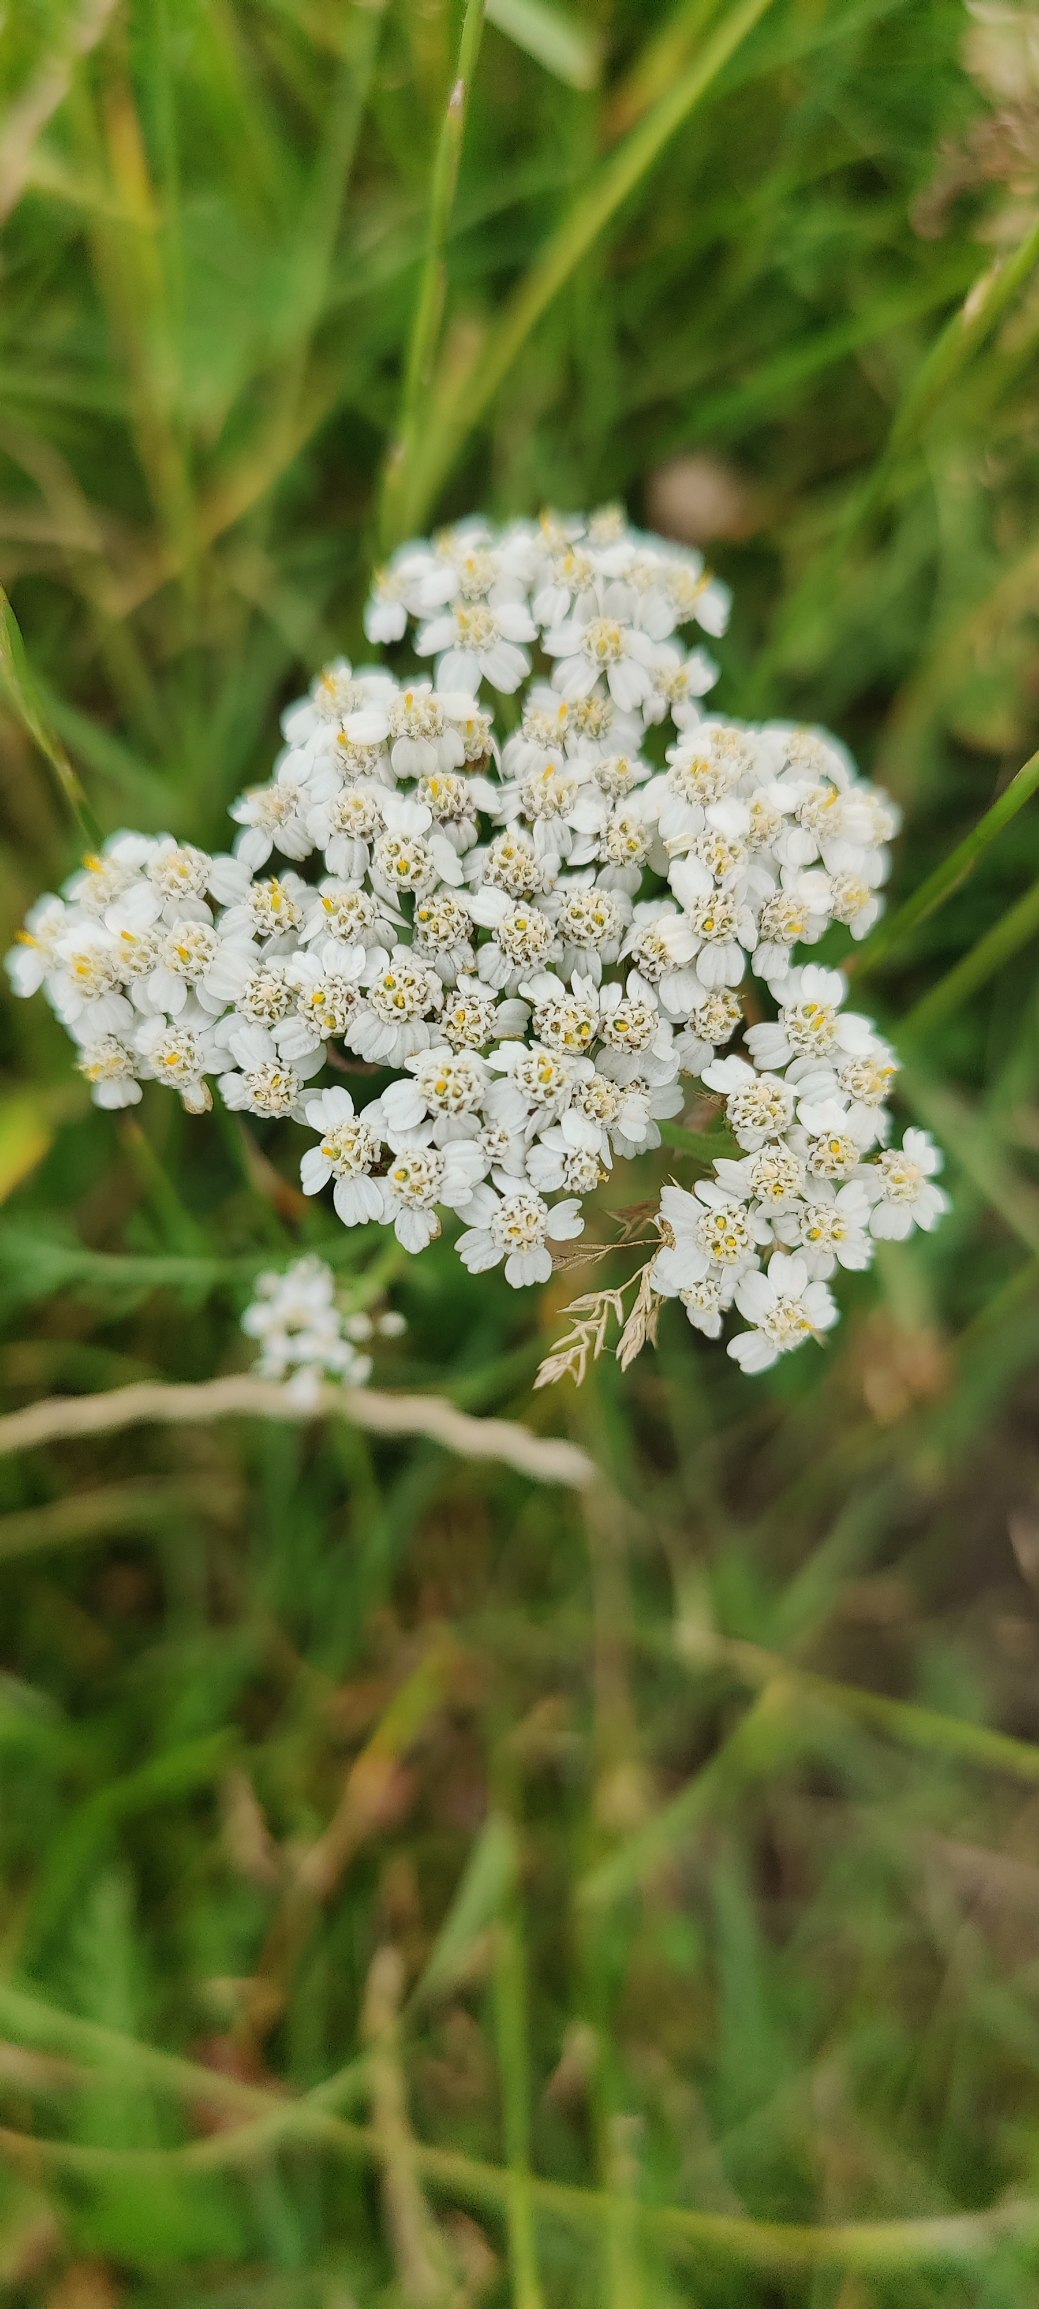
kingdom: Plantae
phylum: Tracheophyta
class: Magnoliopsida
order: Asterales
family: Asteraceae
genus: Achillea
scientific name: Achillea millefolium
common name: Almindelig røllike
